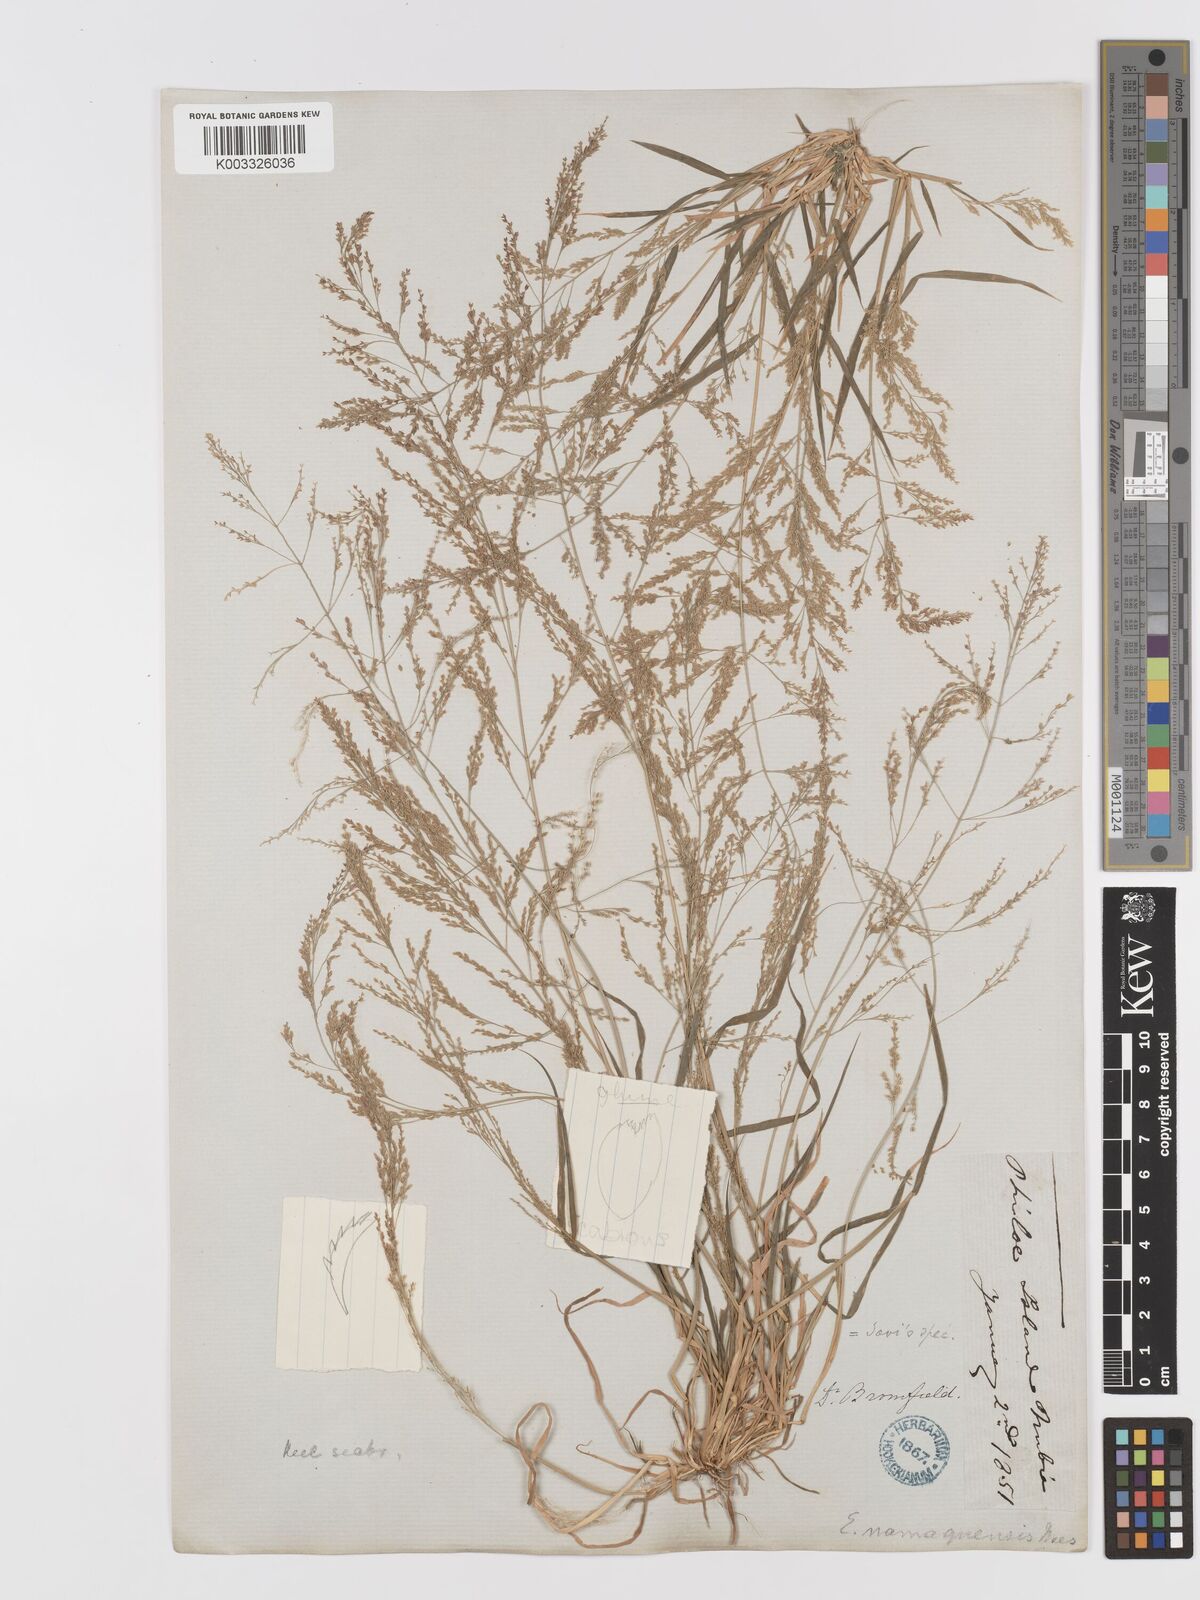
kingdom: Plantae
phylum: Tracheophyta
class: Liliopsida
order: Poales
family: Poaceae
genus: Eragrostis
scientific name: Eragrostis japonica
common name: Pond lovegrass
